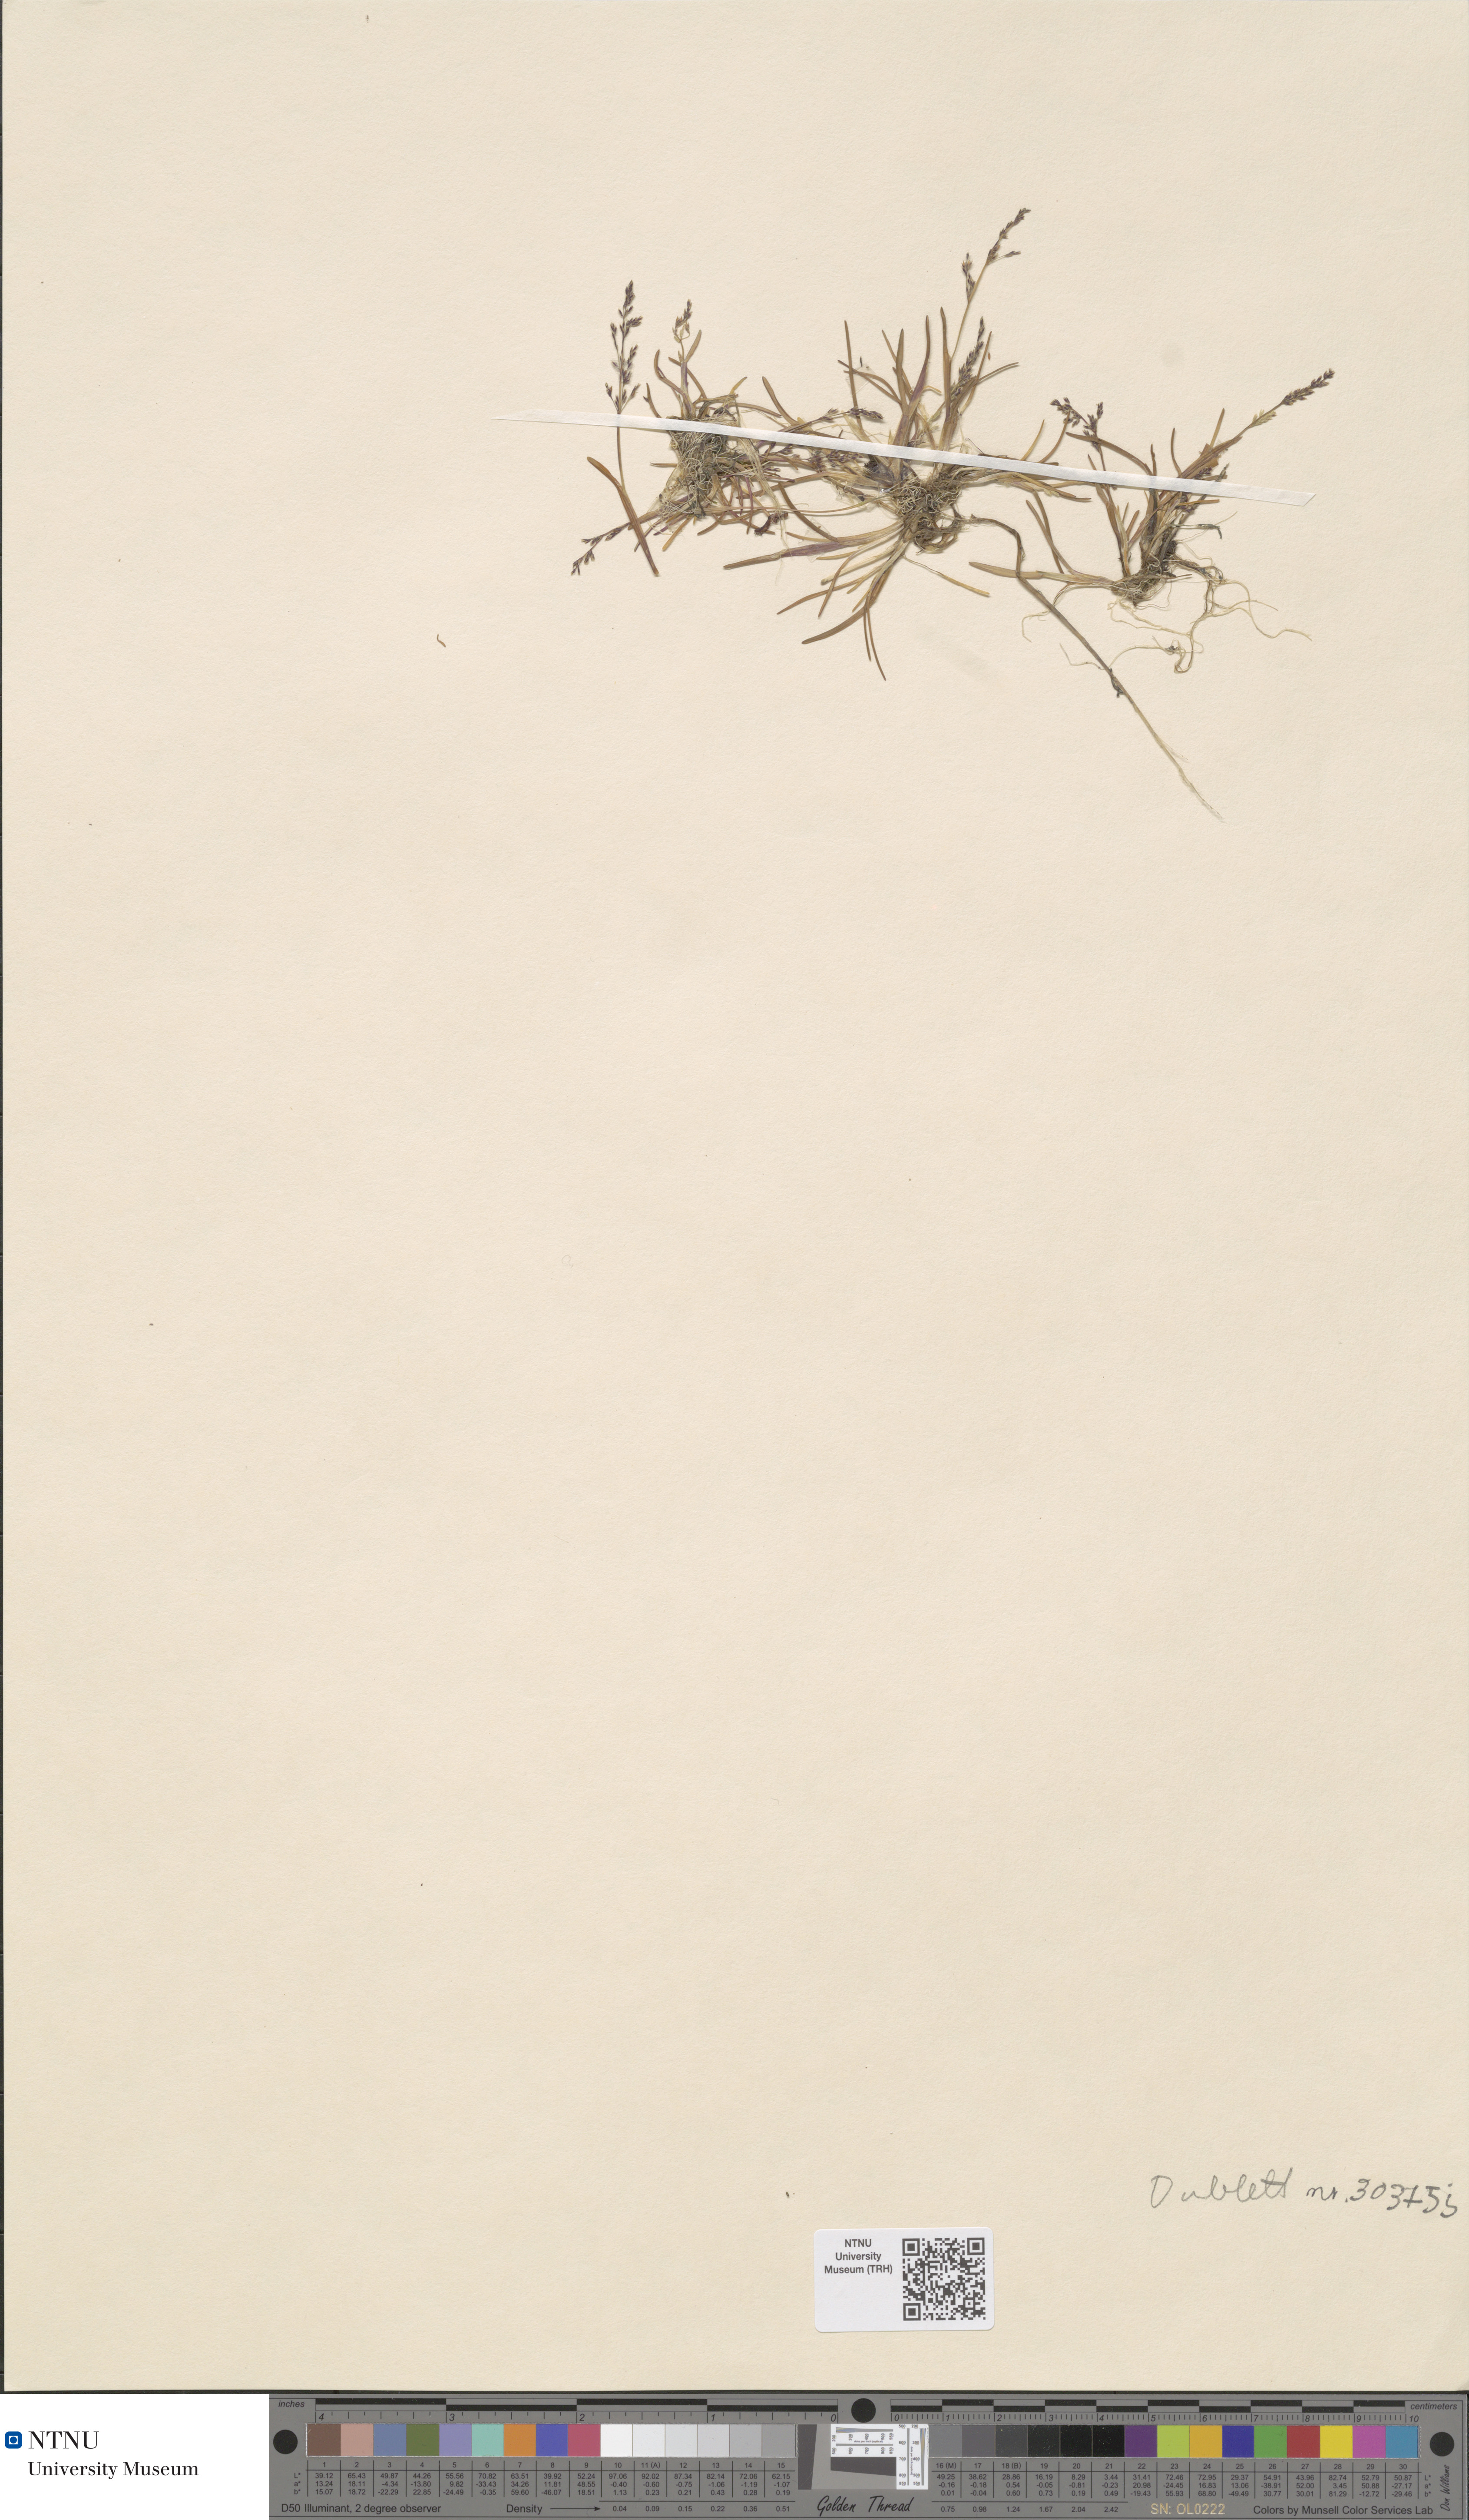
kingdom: Plantae
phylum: Tracheophyta
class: Liliopsida
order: Poales
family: Poaceae
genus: Phippsia
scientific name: Phippsia concinna
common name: Snowgrass
